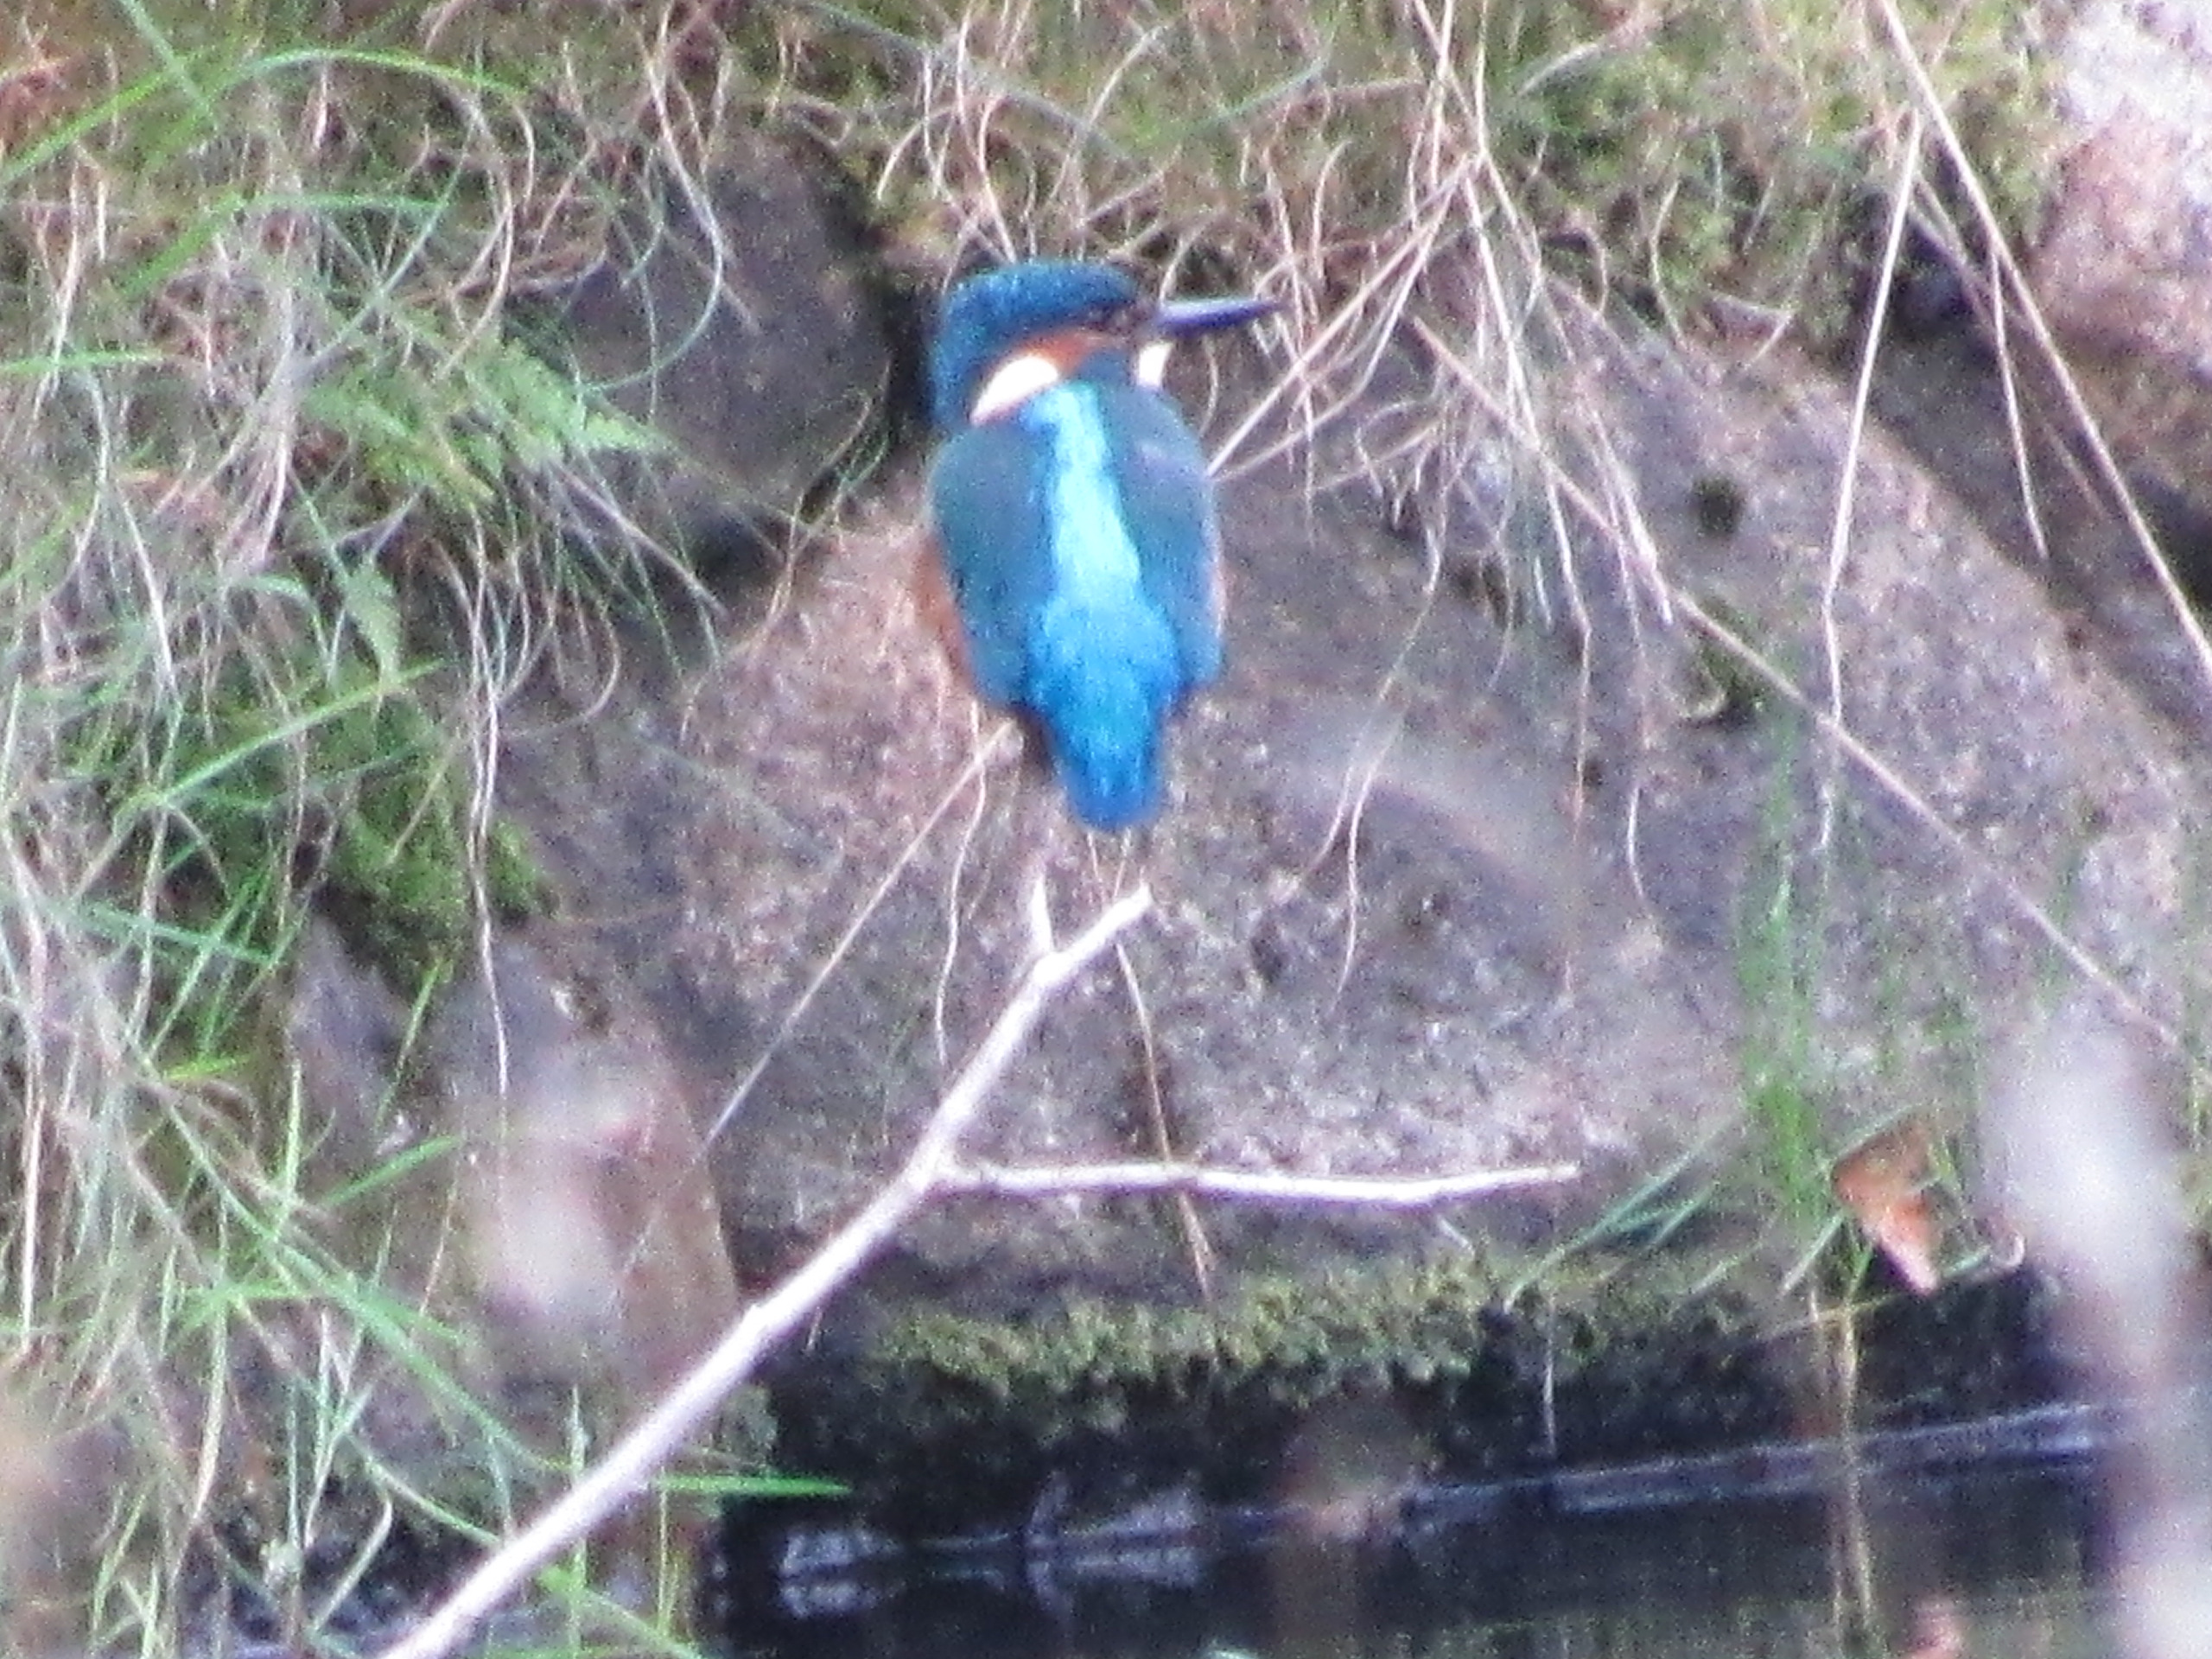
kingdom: Animalia
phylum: Chordata
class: Aves
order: Coraciiformes
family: Alcedinidae
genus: Alcedo
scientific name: Alcedo atthis
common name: Isfugl
